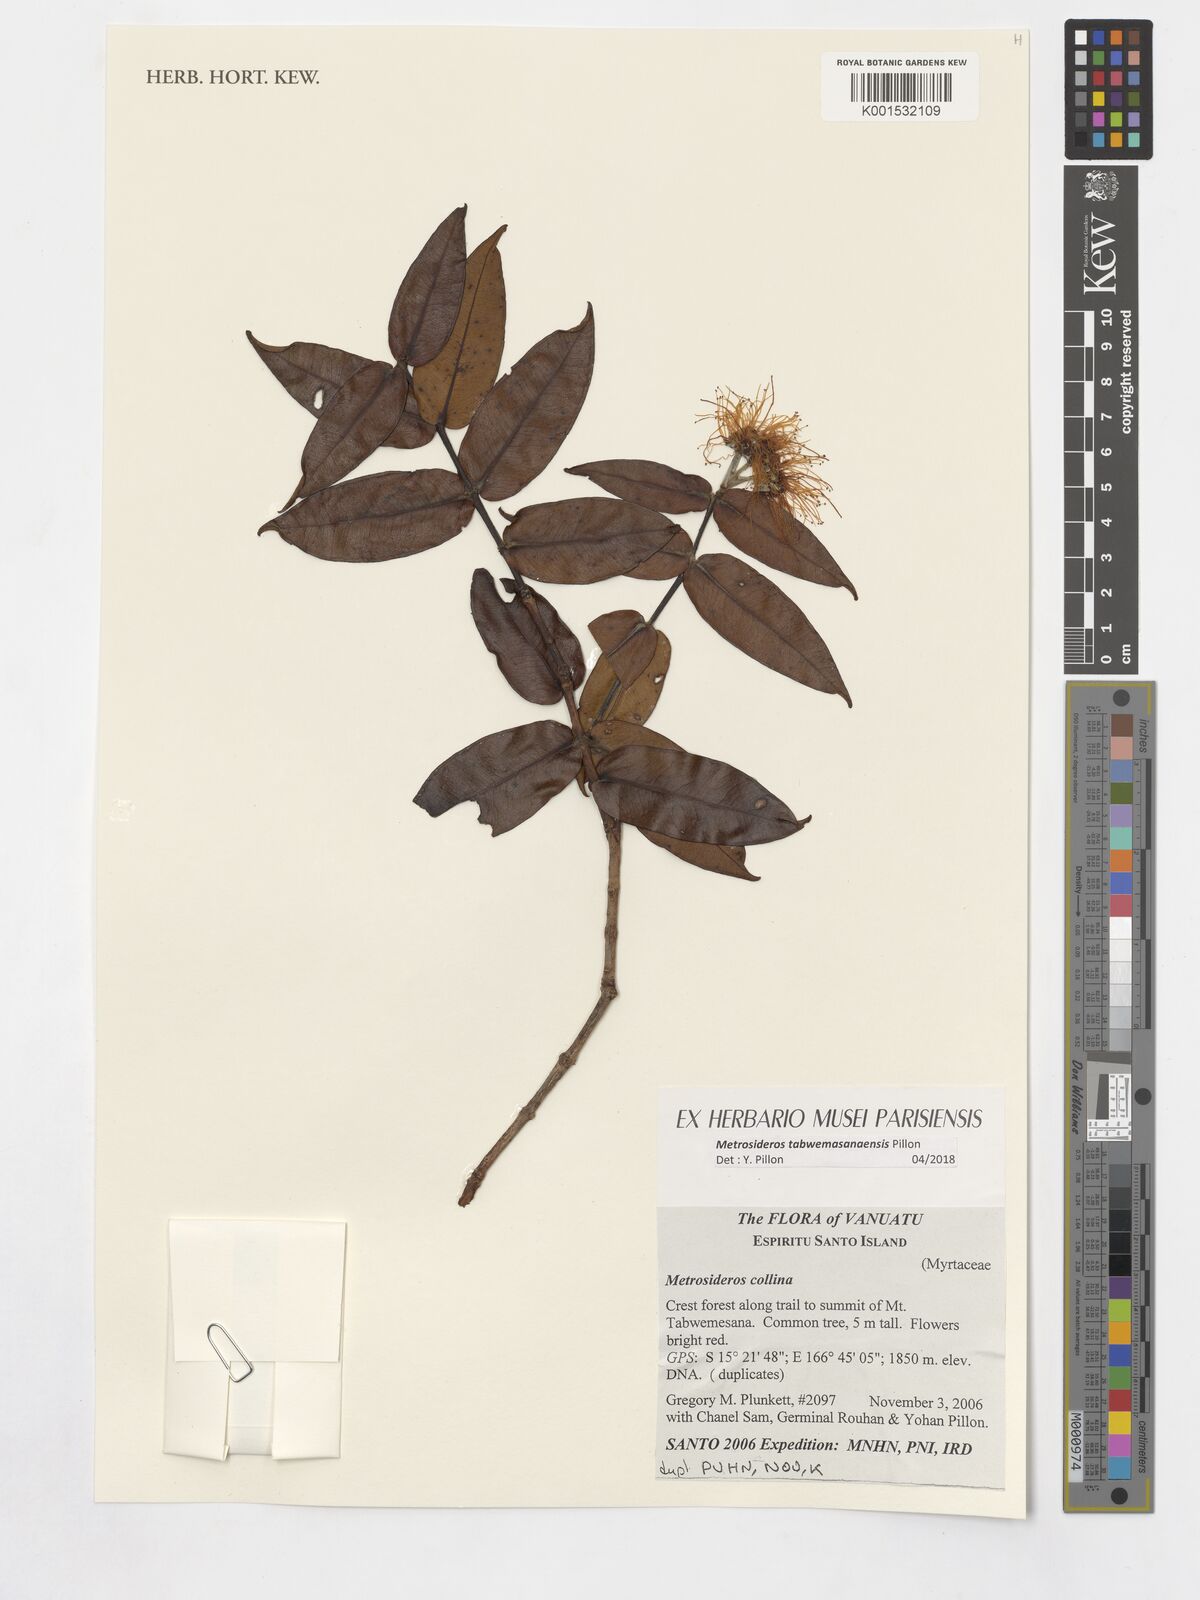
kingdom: Plantae
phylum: Tracheophyta
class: Magnoliopsida
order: Myrtales
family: Myrtaceae
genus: Metrosideros
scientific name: Metrosideros tabwemasanaensis
